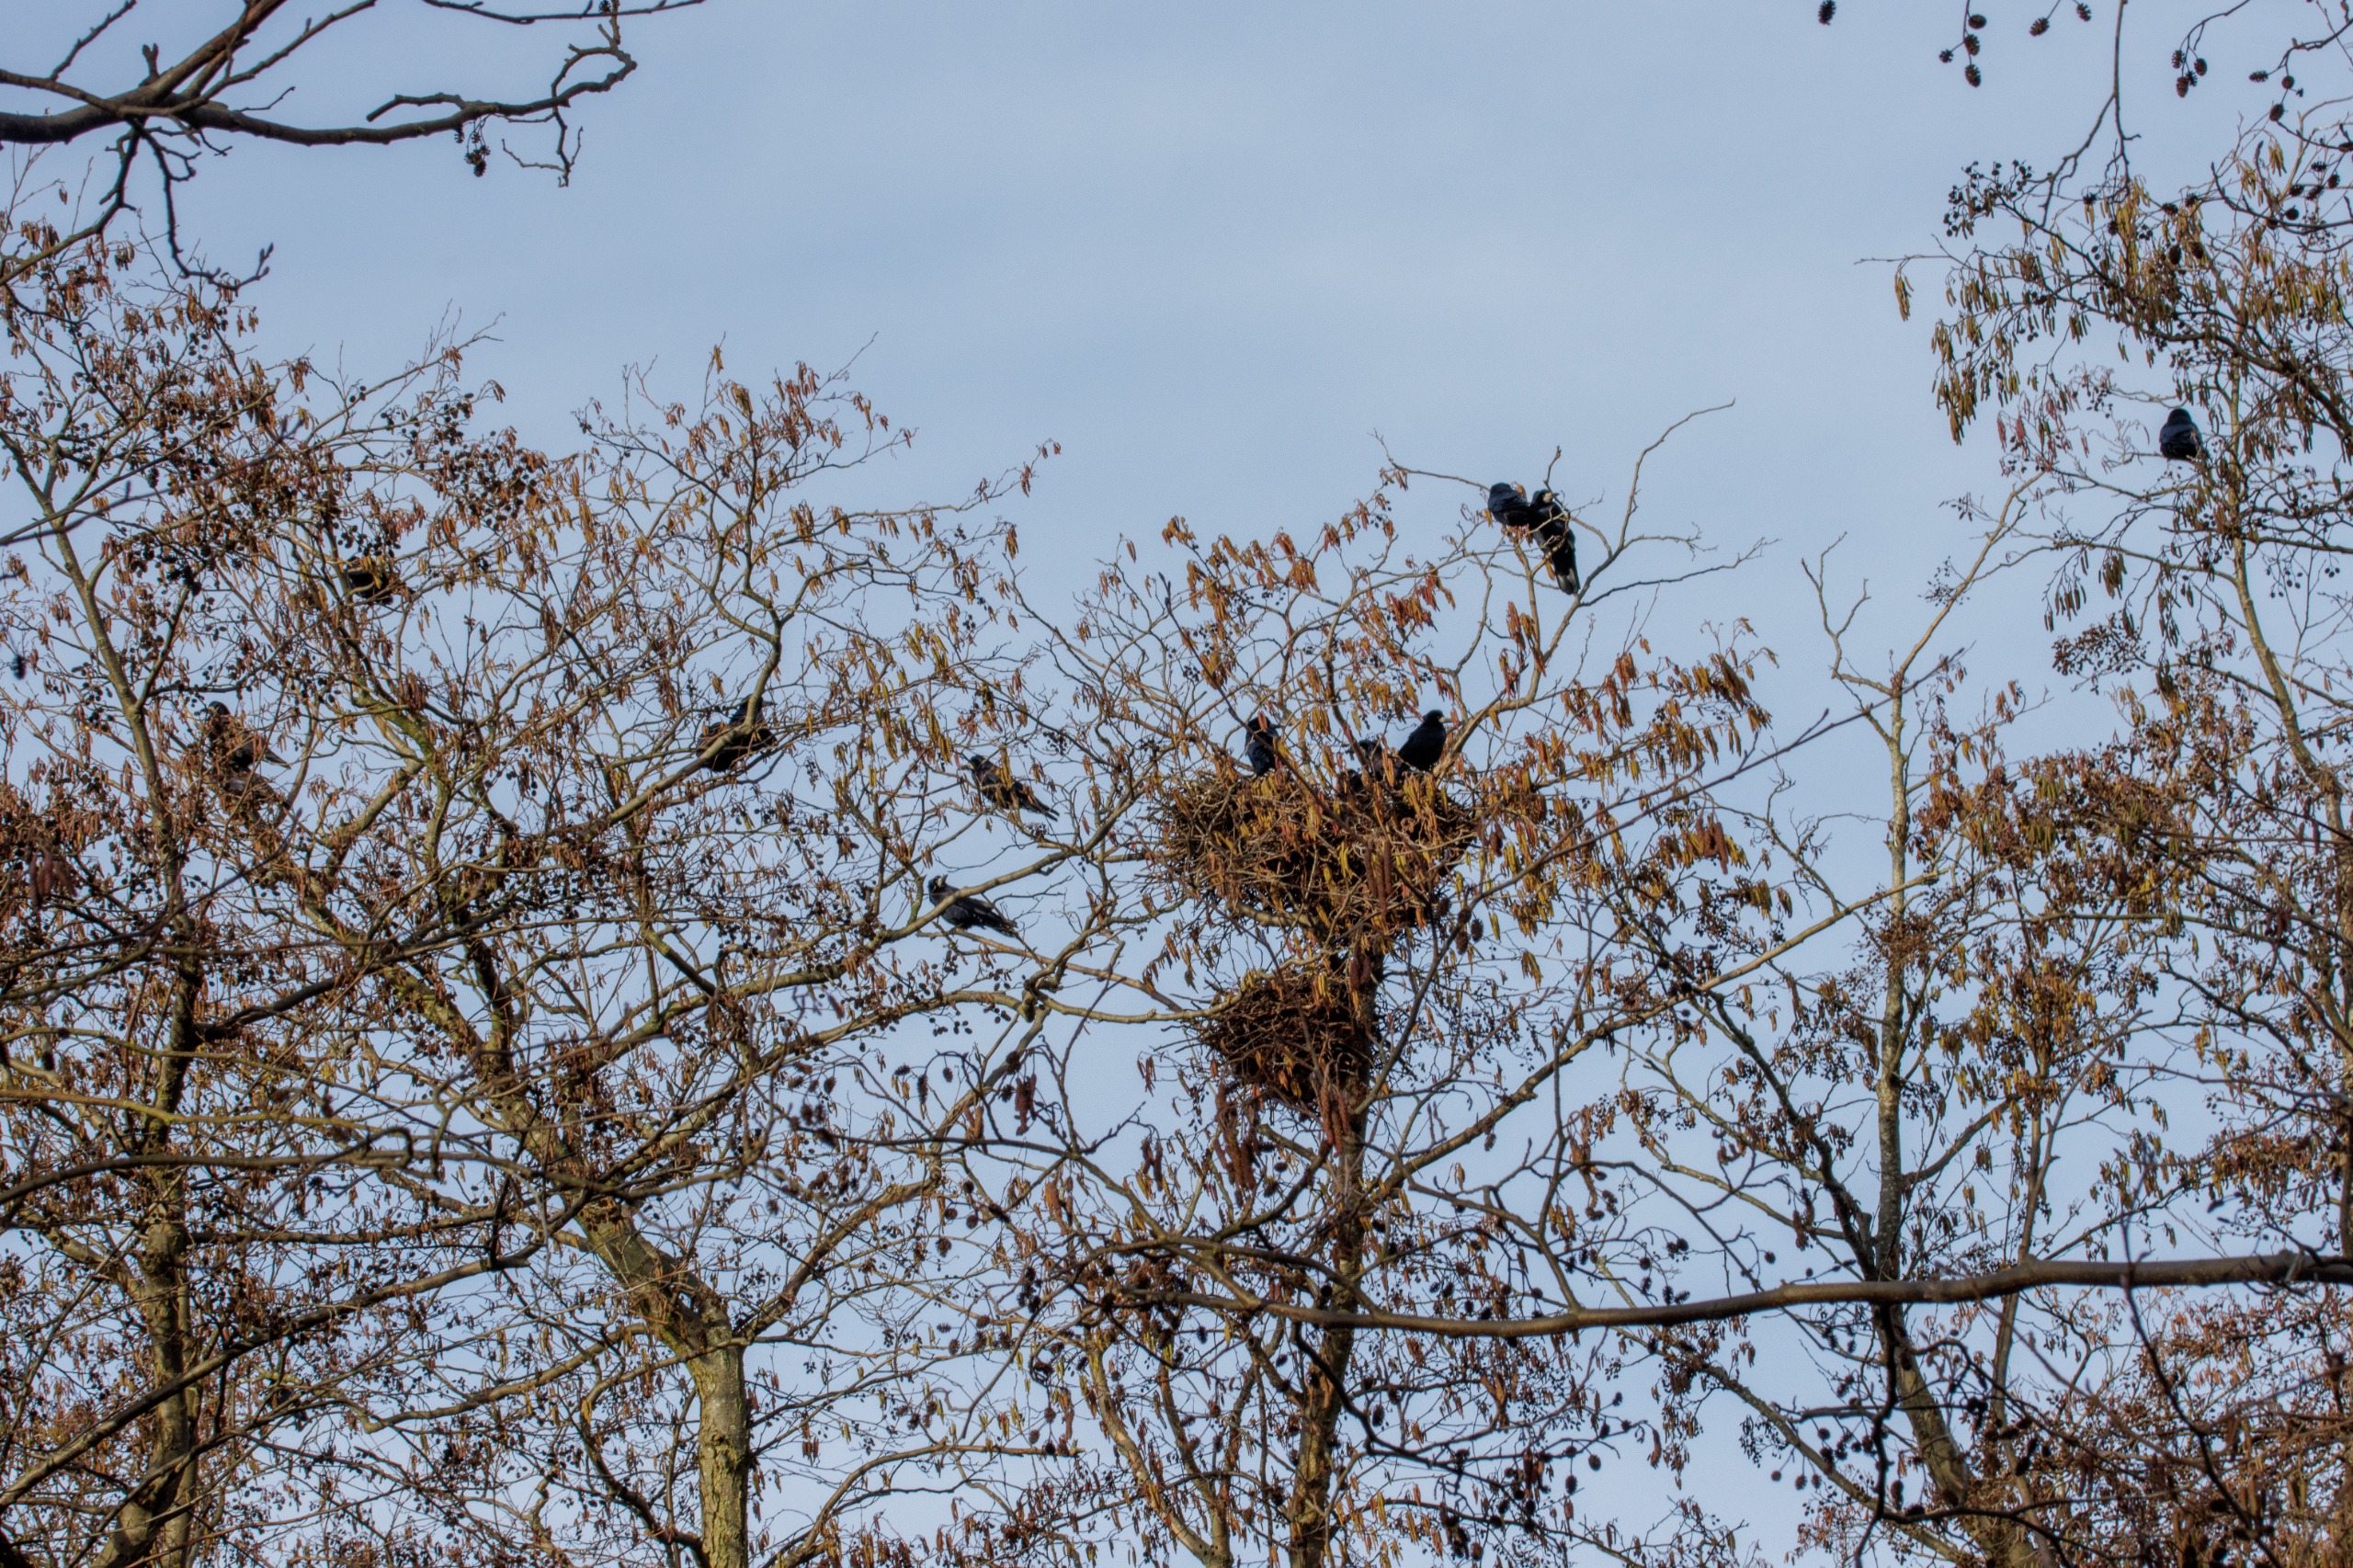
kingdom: Animalia
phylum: Chordata
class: Aves
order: Passeriformes
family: Corvidae
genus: Corvus
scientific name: Corvus frugilegus
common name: Råge
